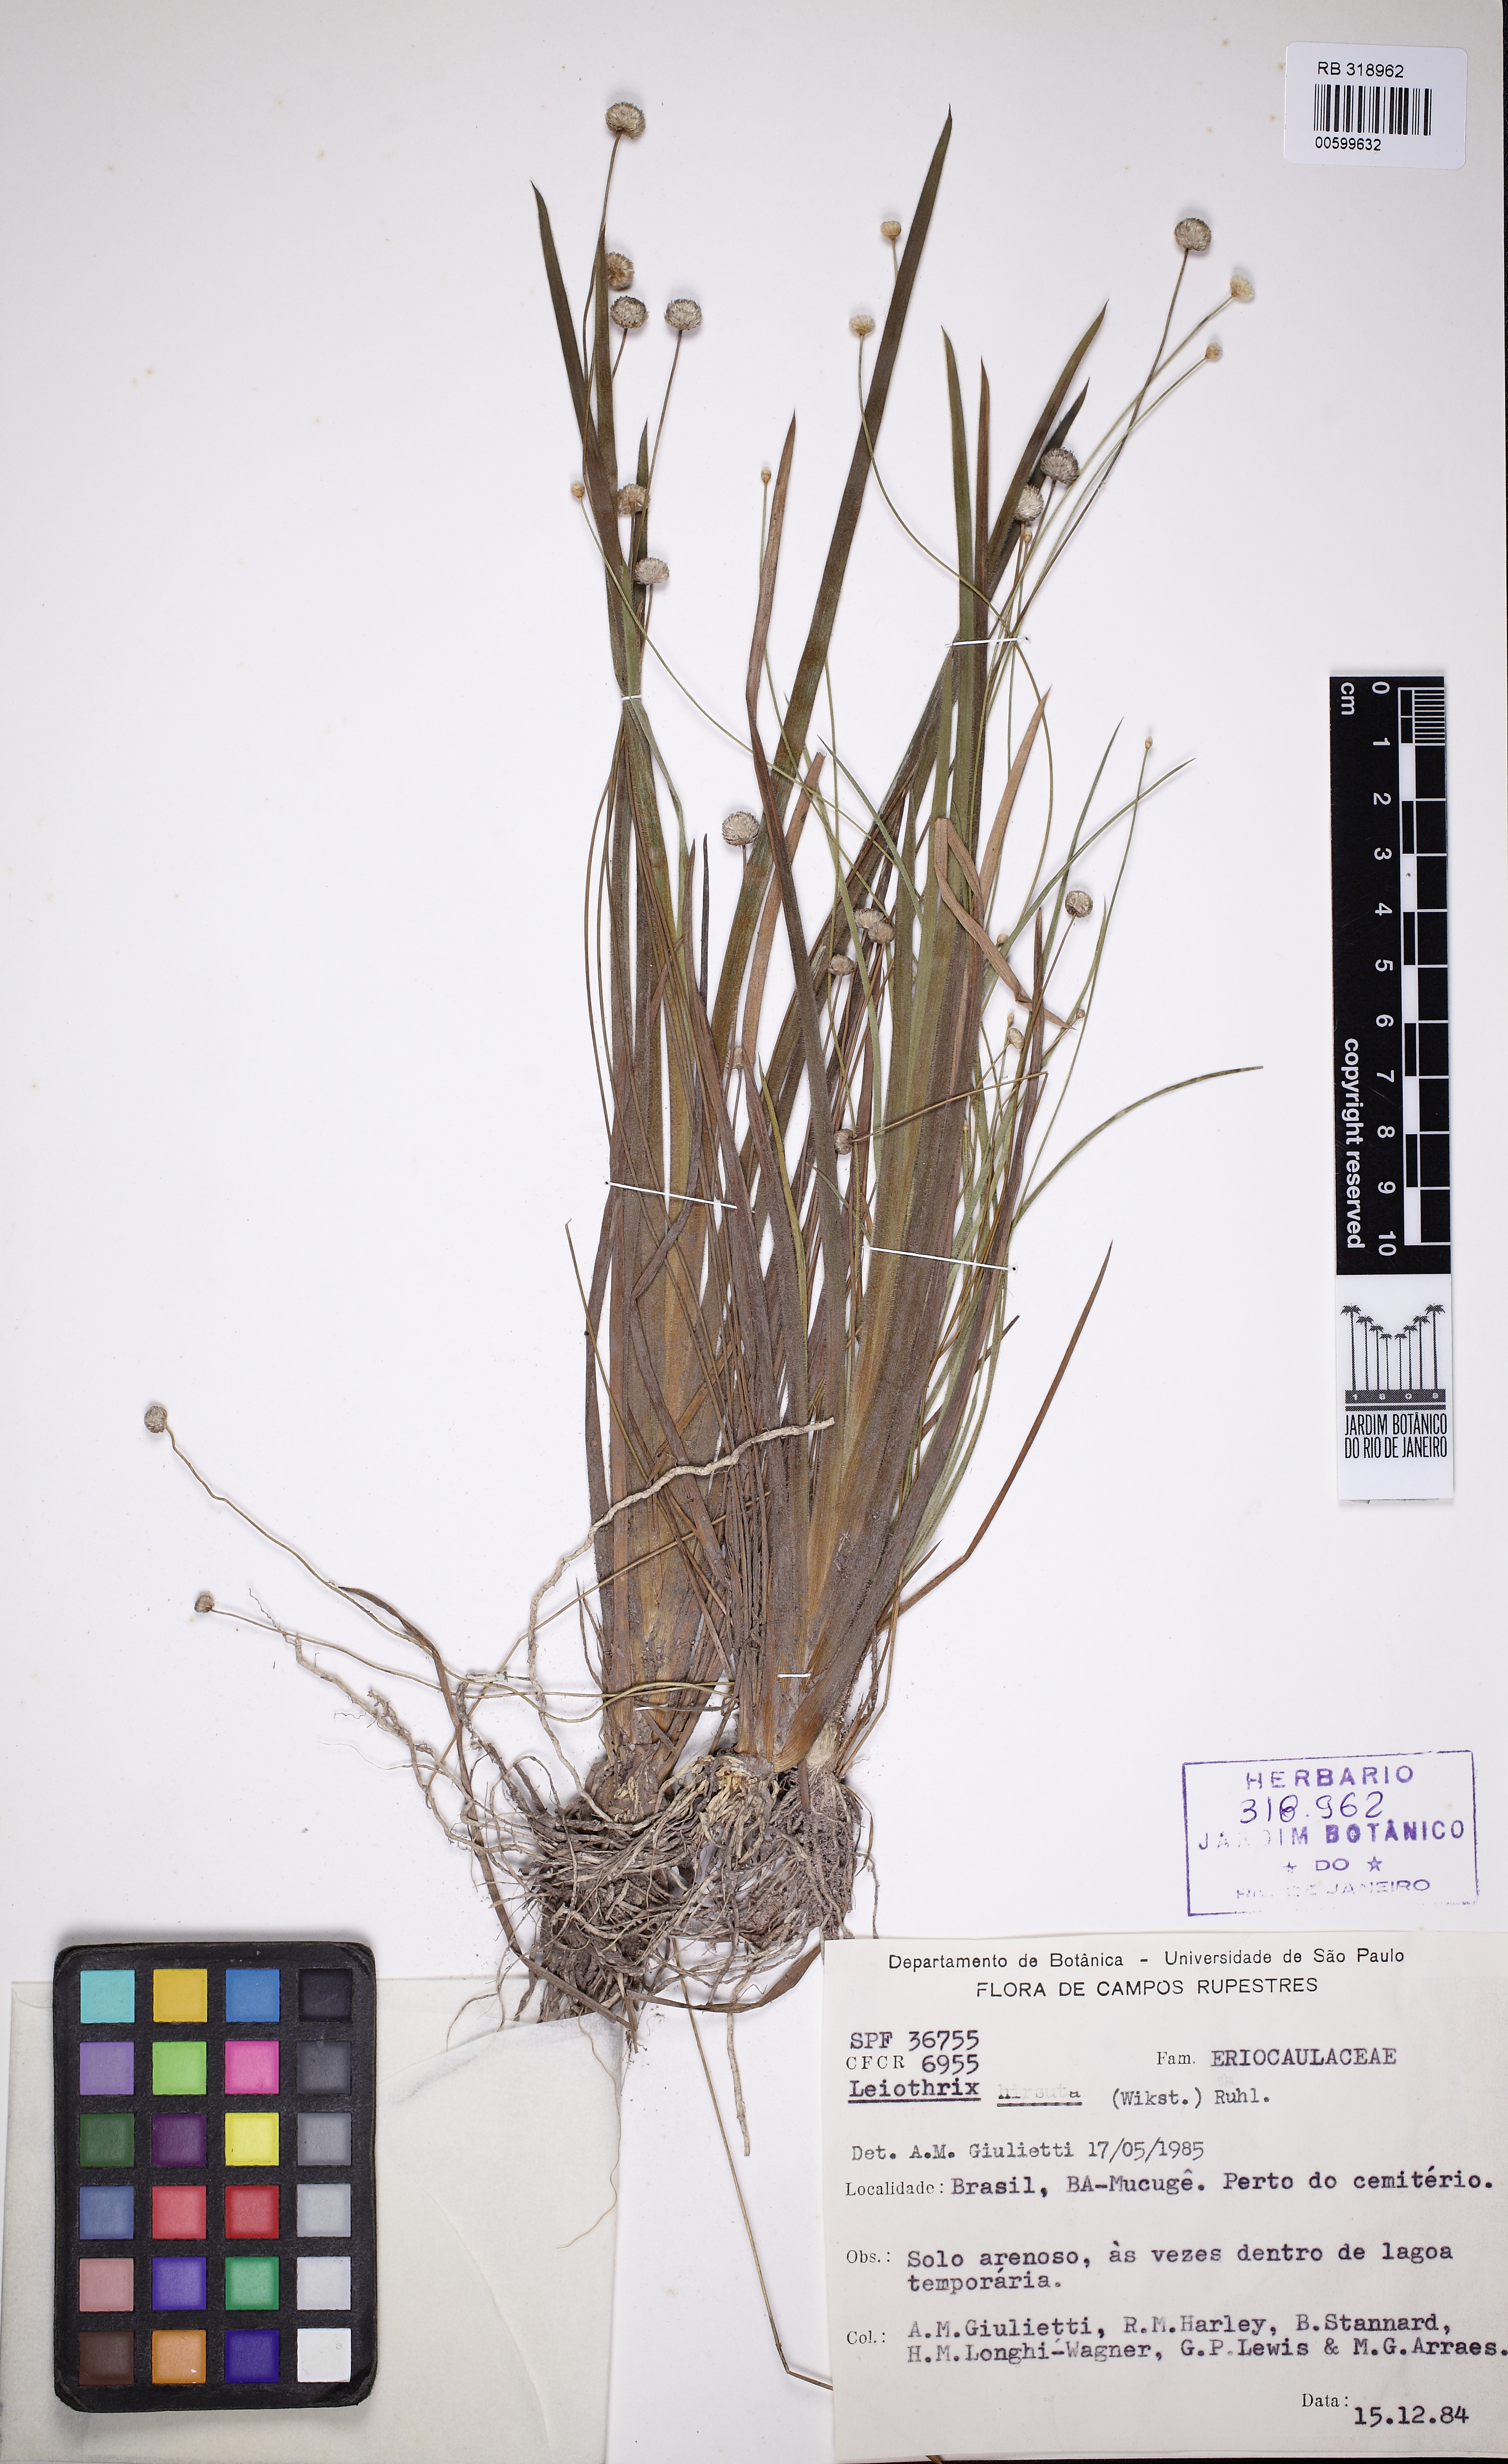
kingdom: Plantae
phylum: Tracheophyta
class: Liliopsida
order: Poales
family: Eriocaulaceae
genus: Leiothrix
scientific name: Leiothrix hirsuta
